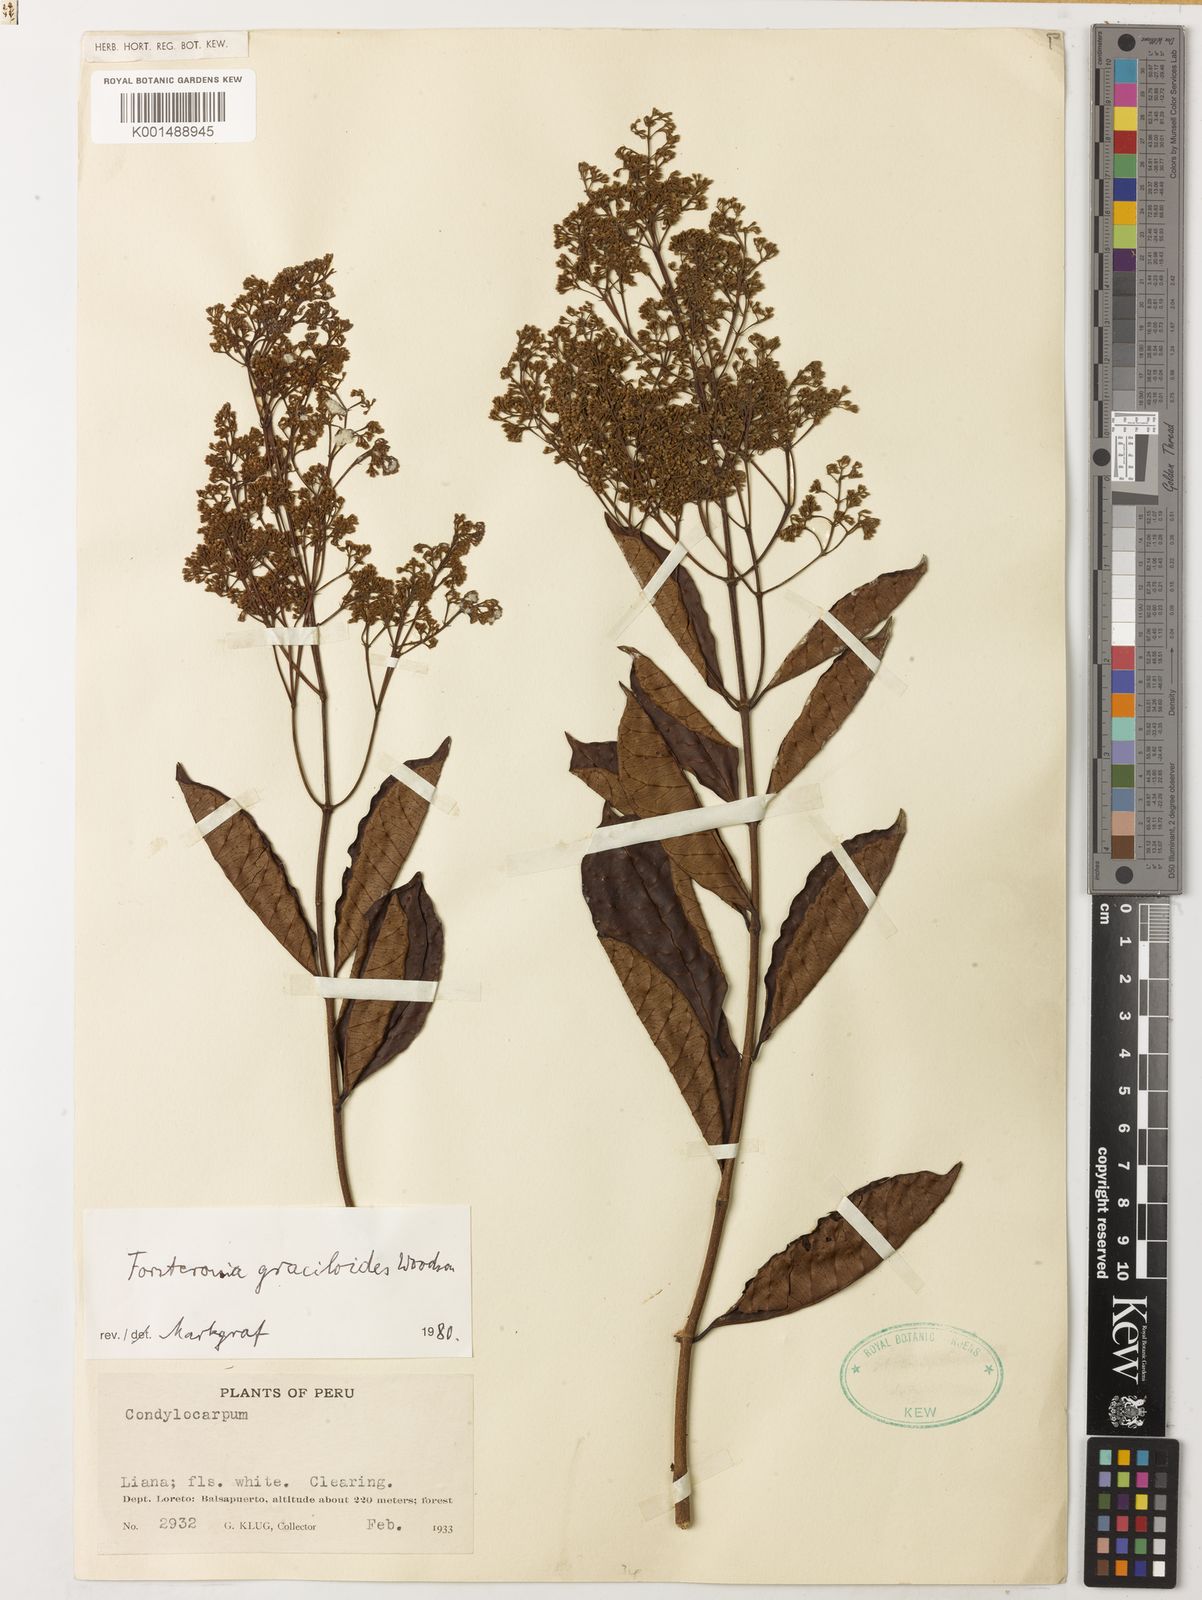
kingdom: Plantae
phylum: Tracheophyta
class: Magnoliopsida
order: Gentianales
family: Apocynaceae
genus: Forsteronia
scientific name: Forsteronia graciloides
